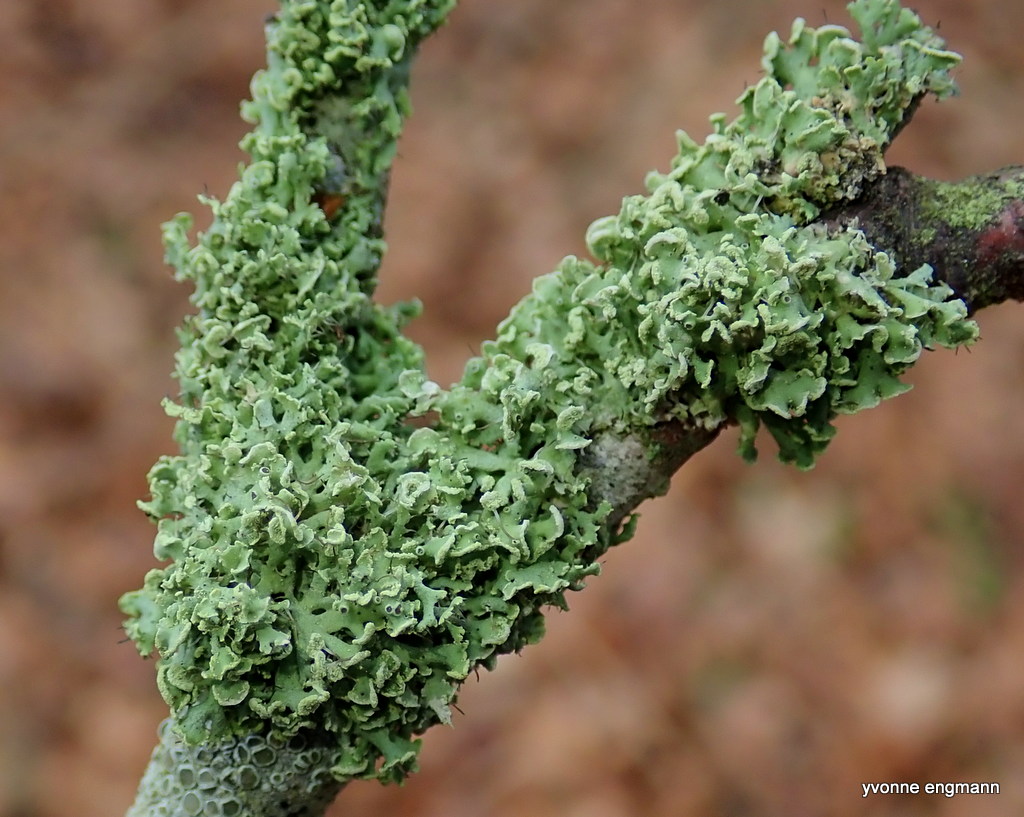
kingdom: Fungi
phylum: Ascomycota
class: Lecanoromycetes
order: Caliciales
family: Physciaceae
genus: Physcia
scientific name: Physcia tenella
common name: spæd rosetlav
